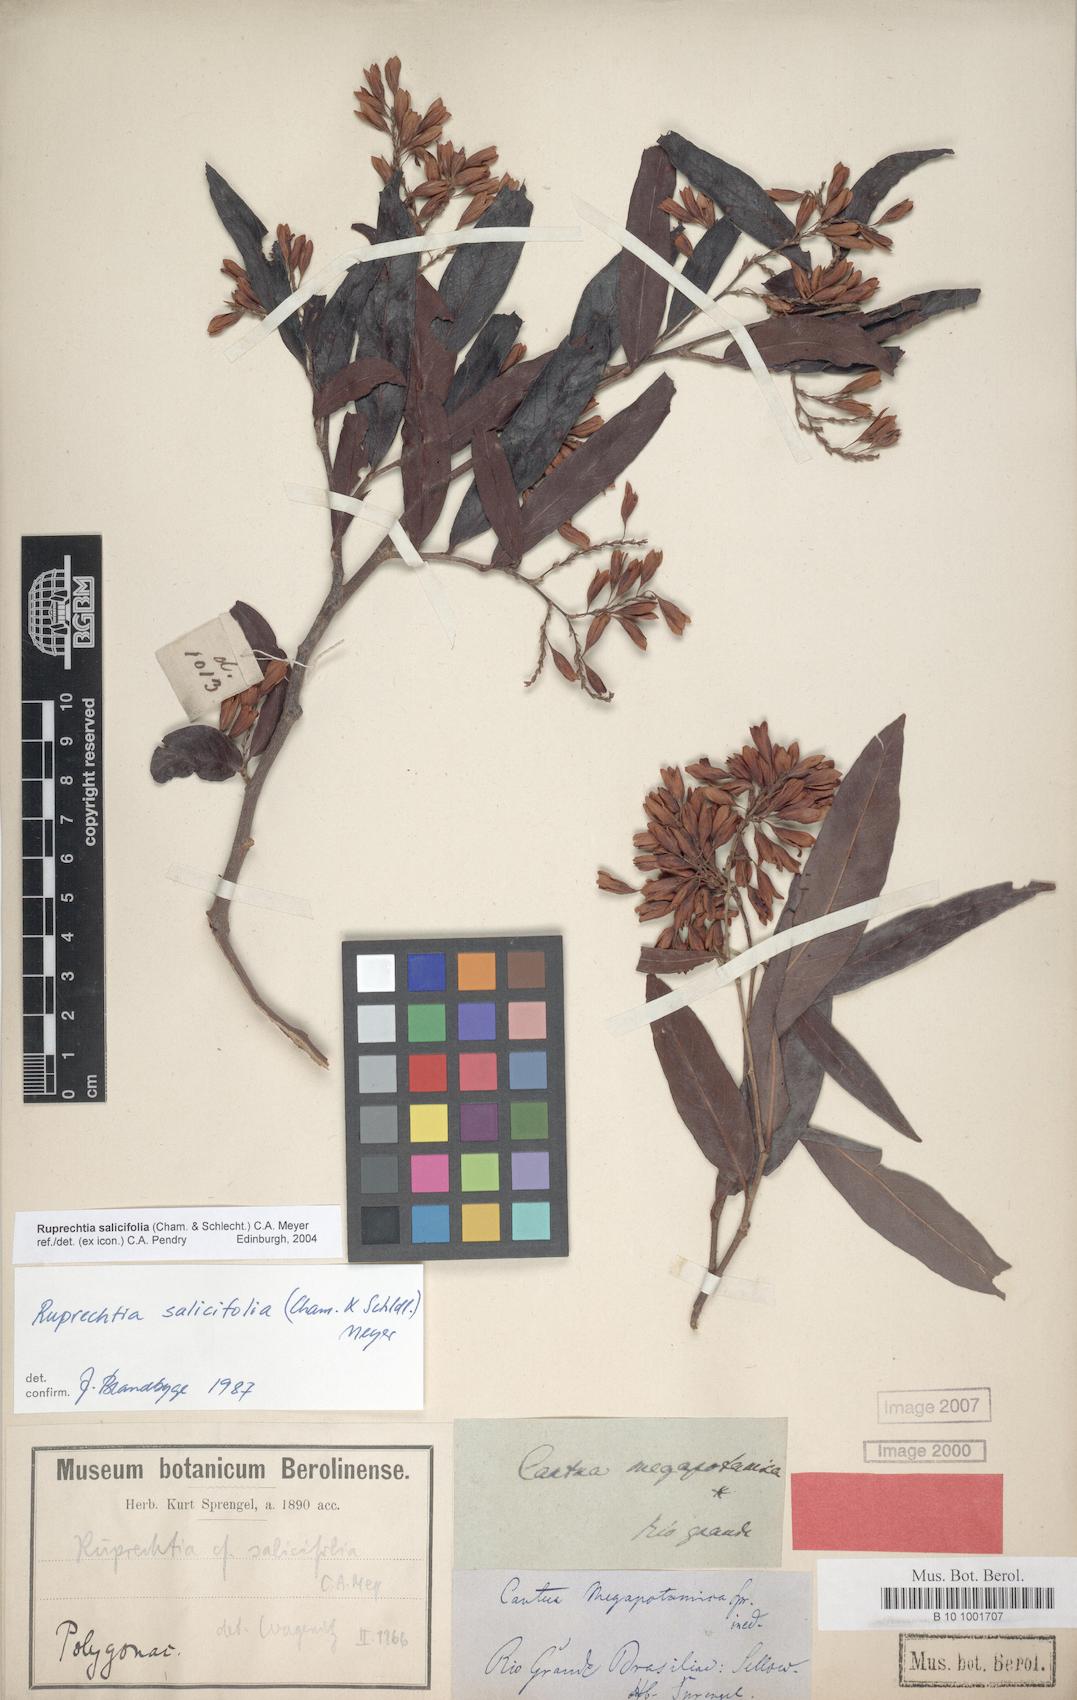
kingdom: Plantae
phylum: Tracheophyta
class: Magnoliopsida
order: Caryophyllales
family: Polygonaceae
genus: Ruprechtia
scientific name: Ruprechtia salicifolia
